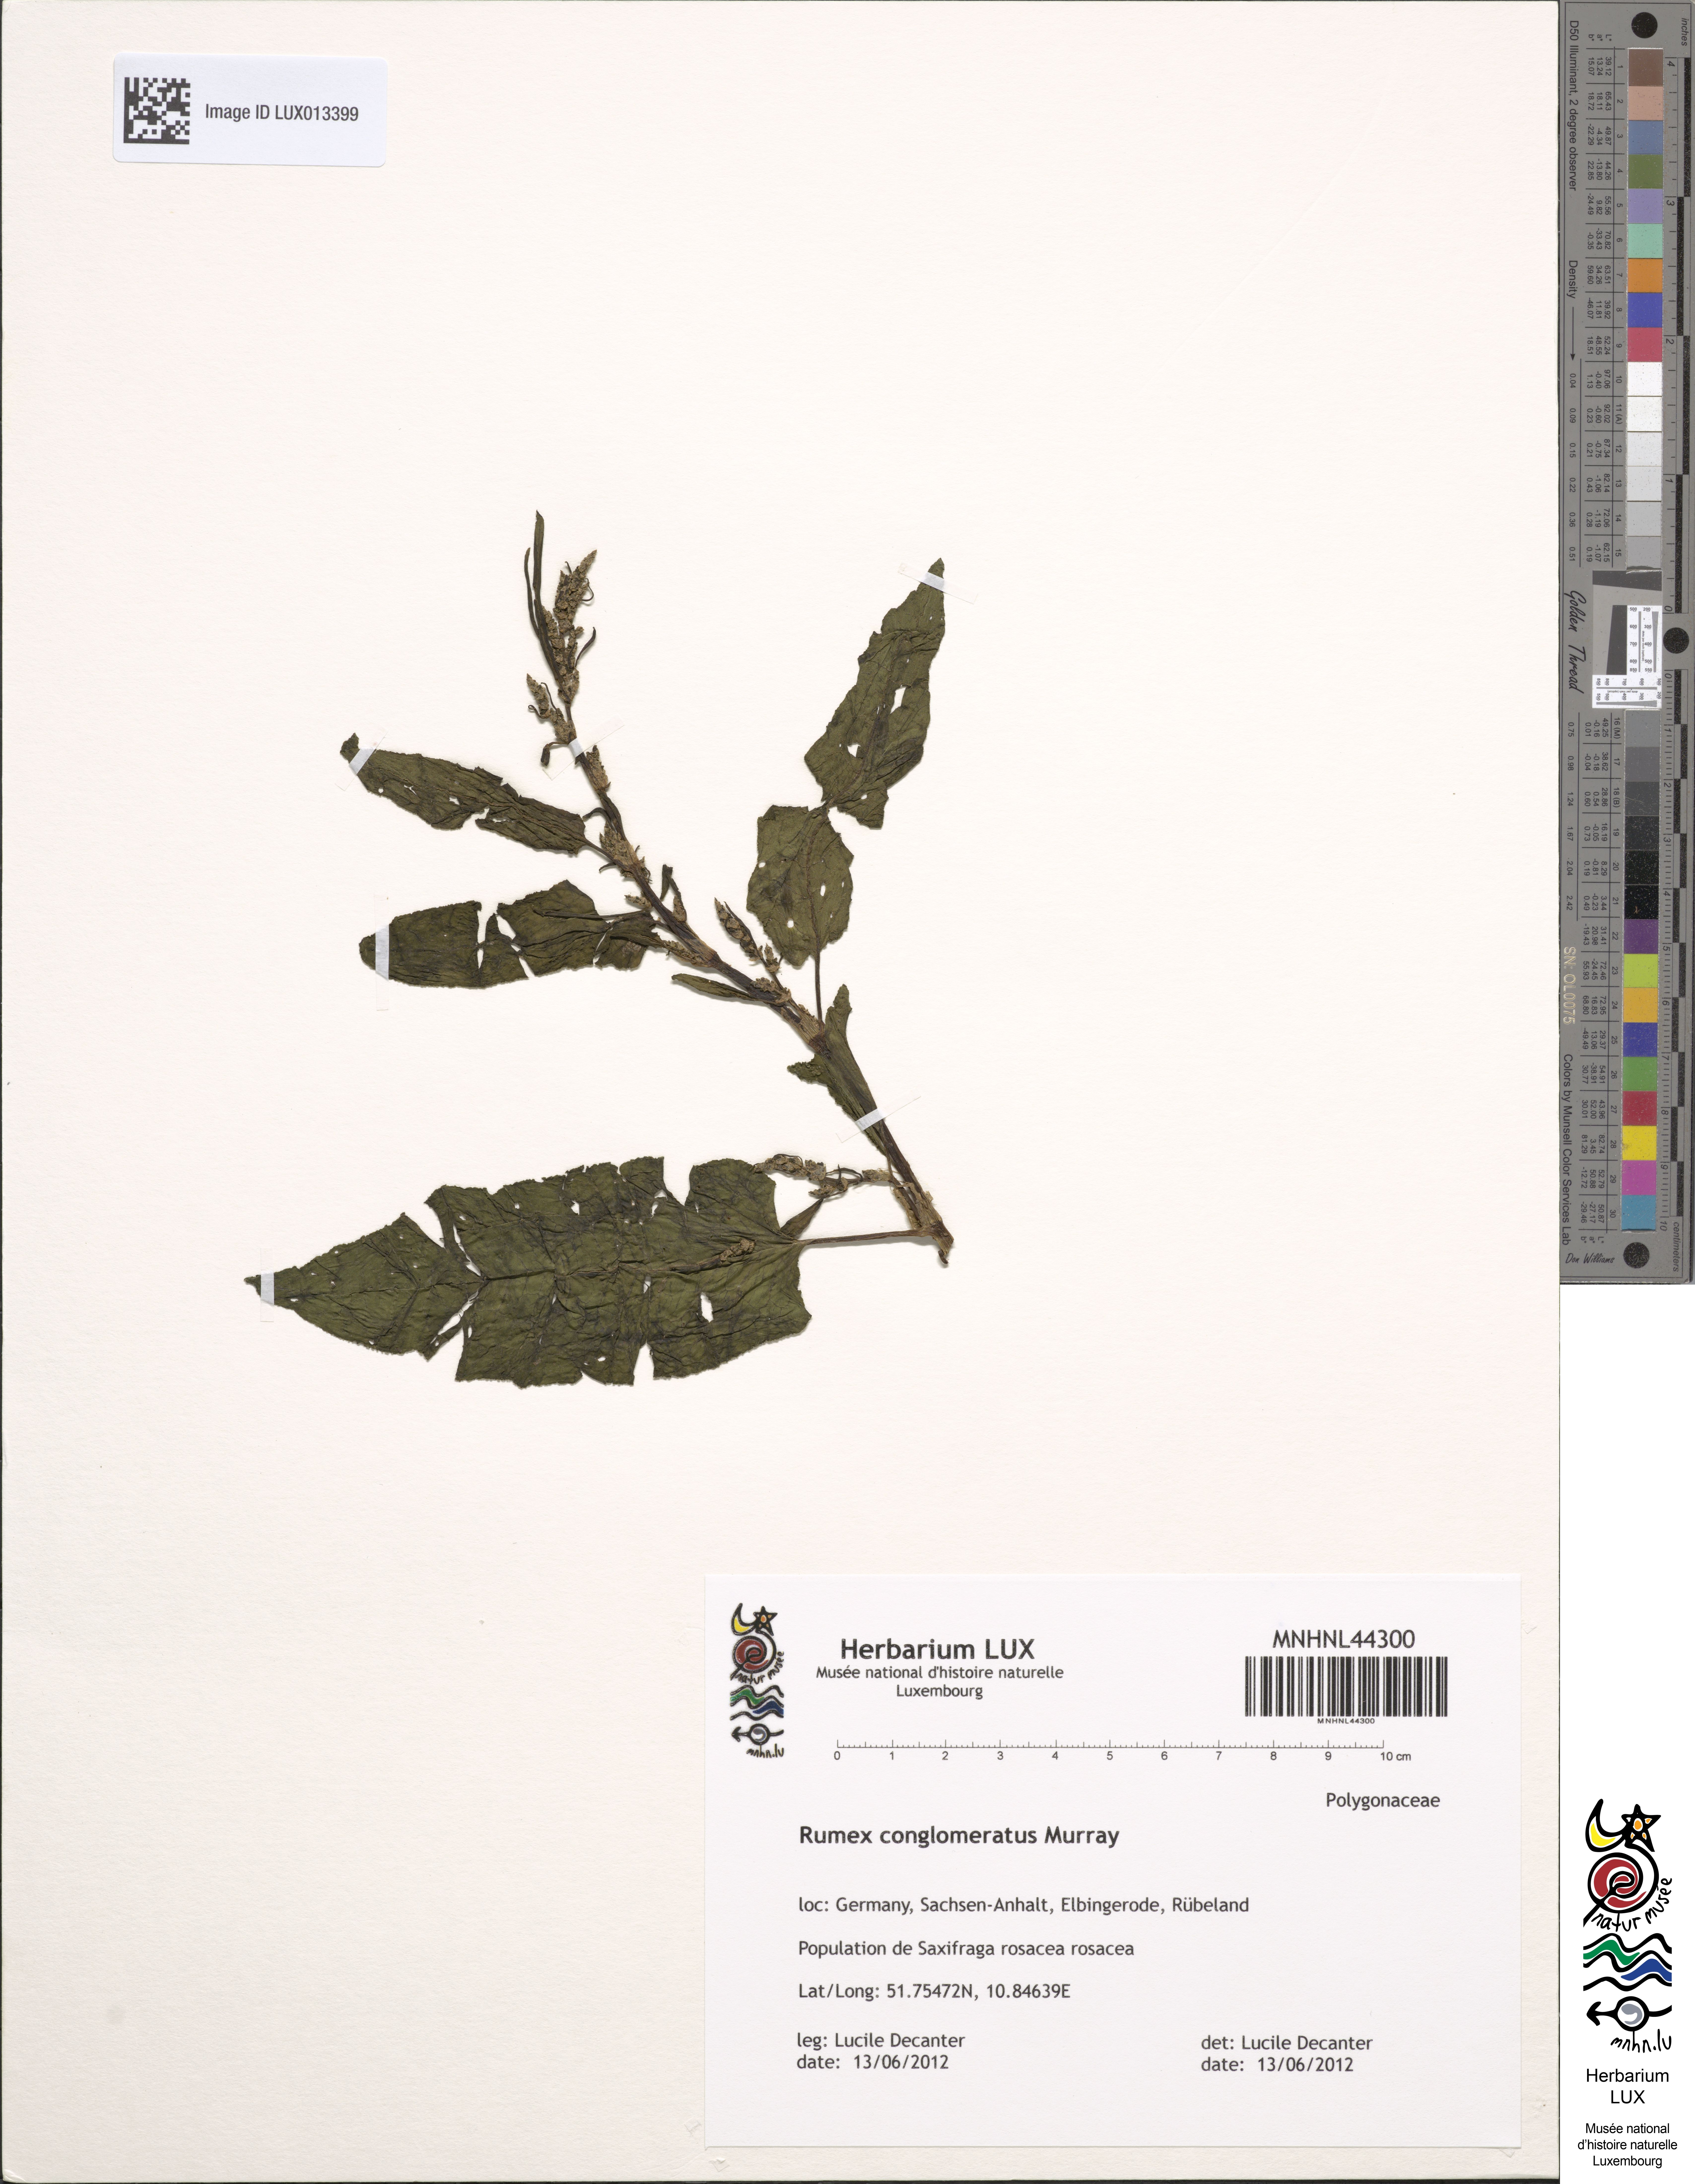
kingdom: Plantae
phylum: Tracheophyta
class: Magnoliopsida
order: Caryophyllales
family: Polygonaceae
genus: Rumex
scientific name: Rumex conglomeratus
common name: Clustered dock
